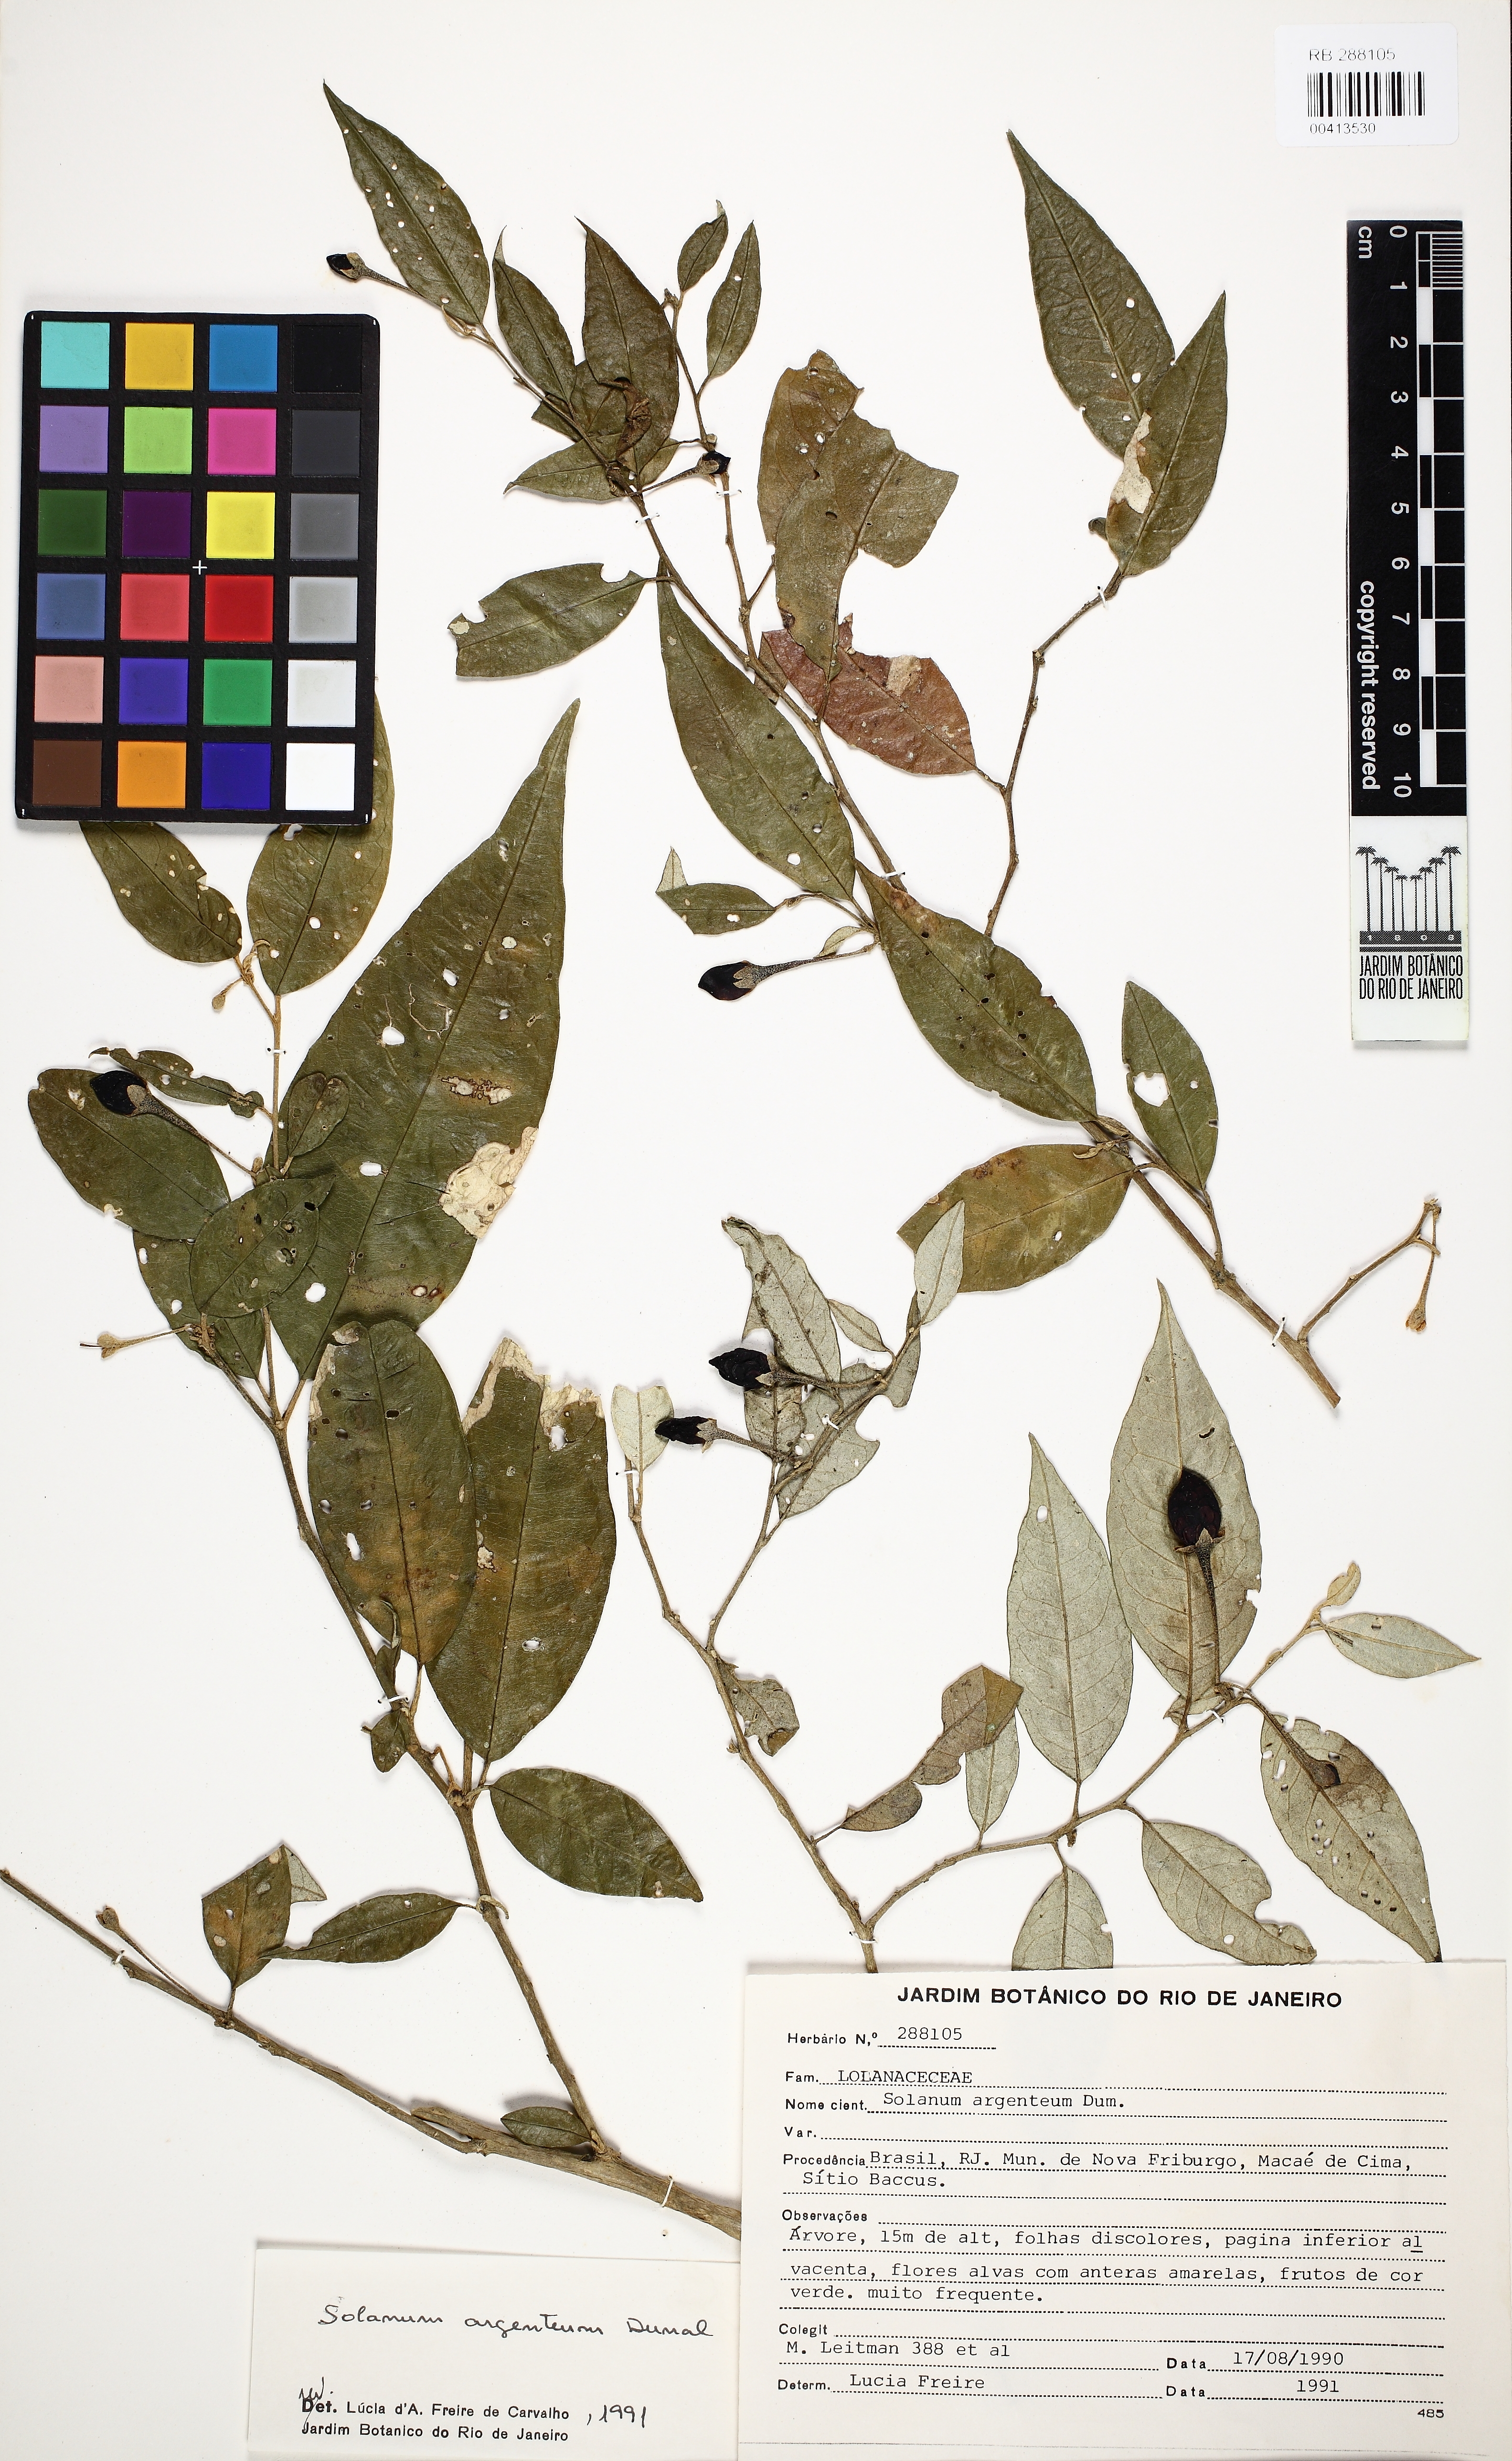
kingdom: Plantae
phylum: Tracheophyta
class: Magnoliopsida
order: Solanales
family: Solanaceae
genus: Solanum
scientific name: Solanum swartzianum
